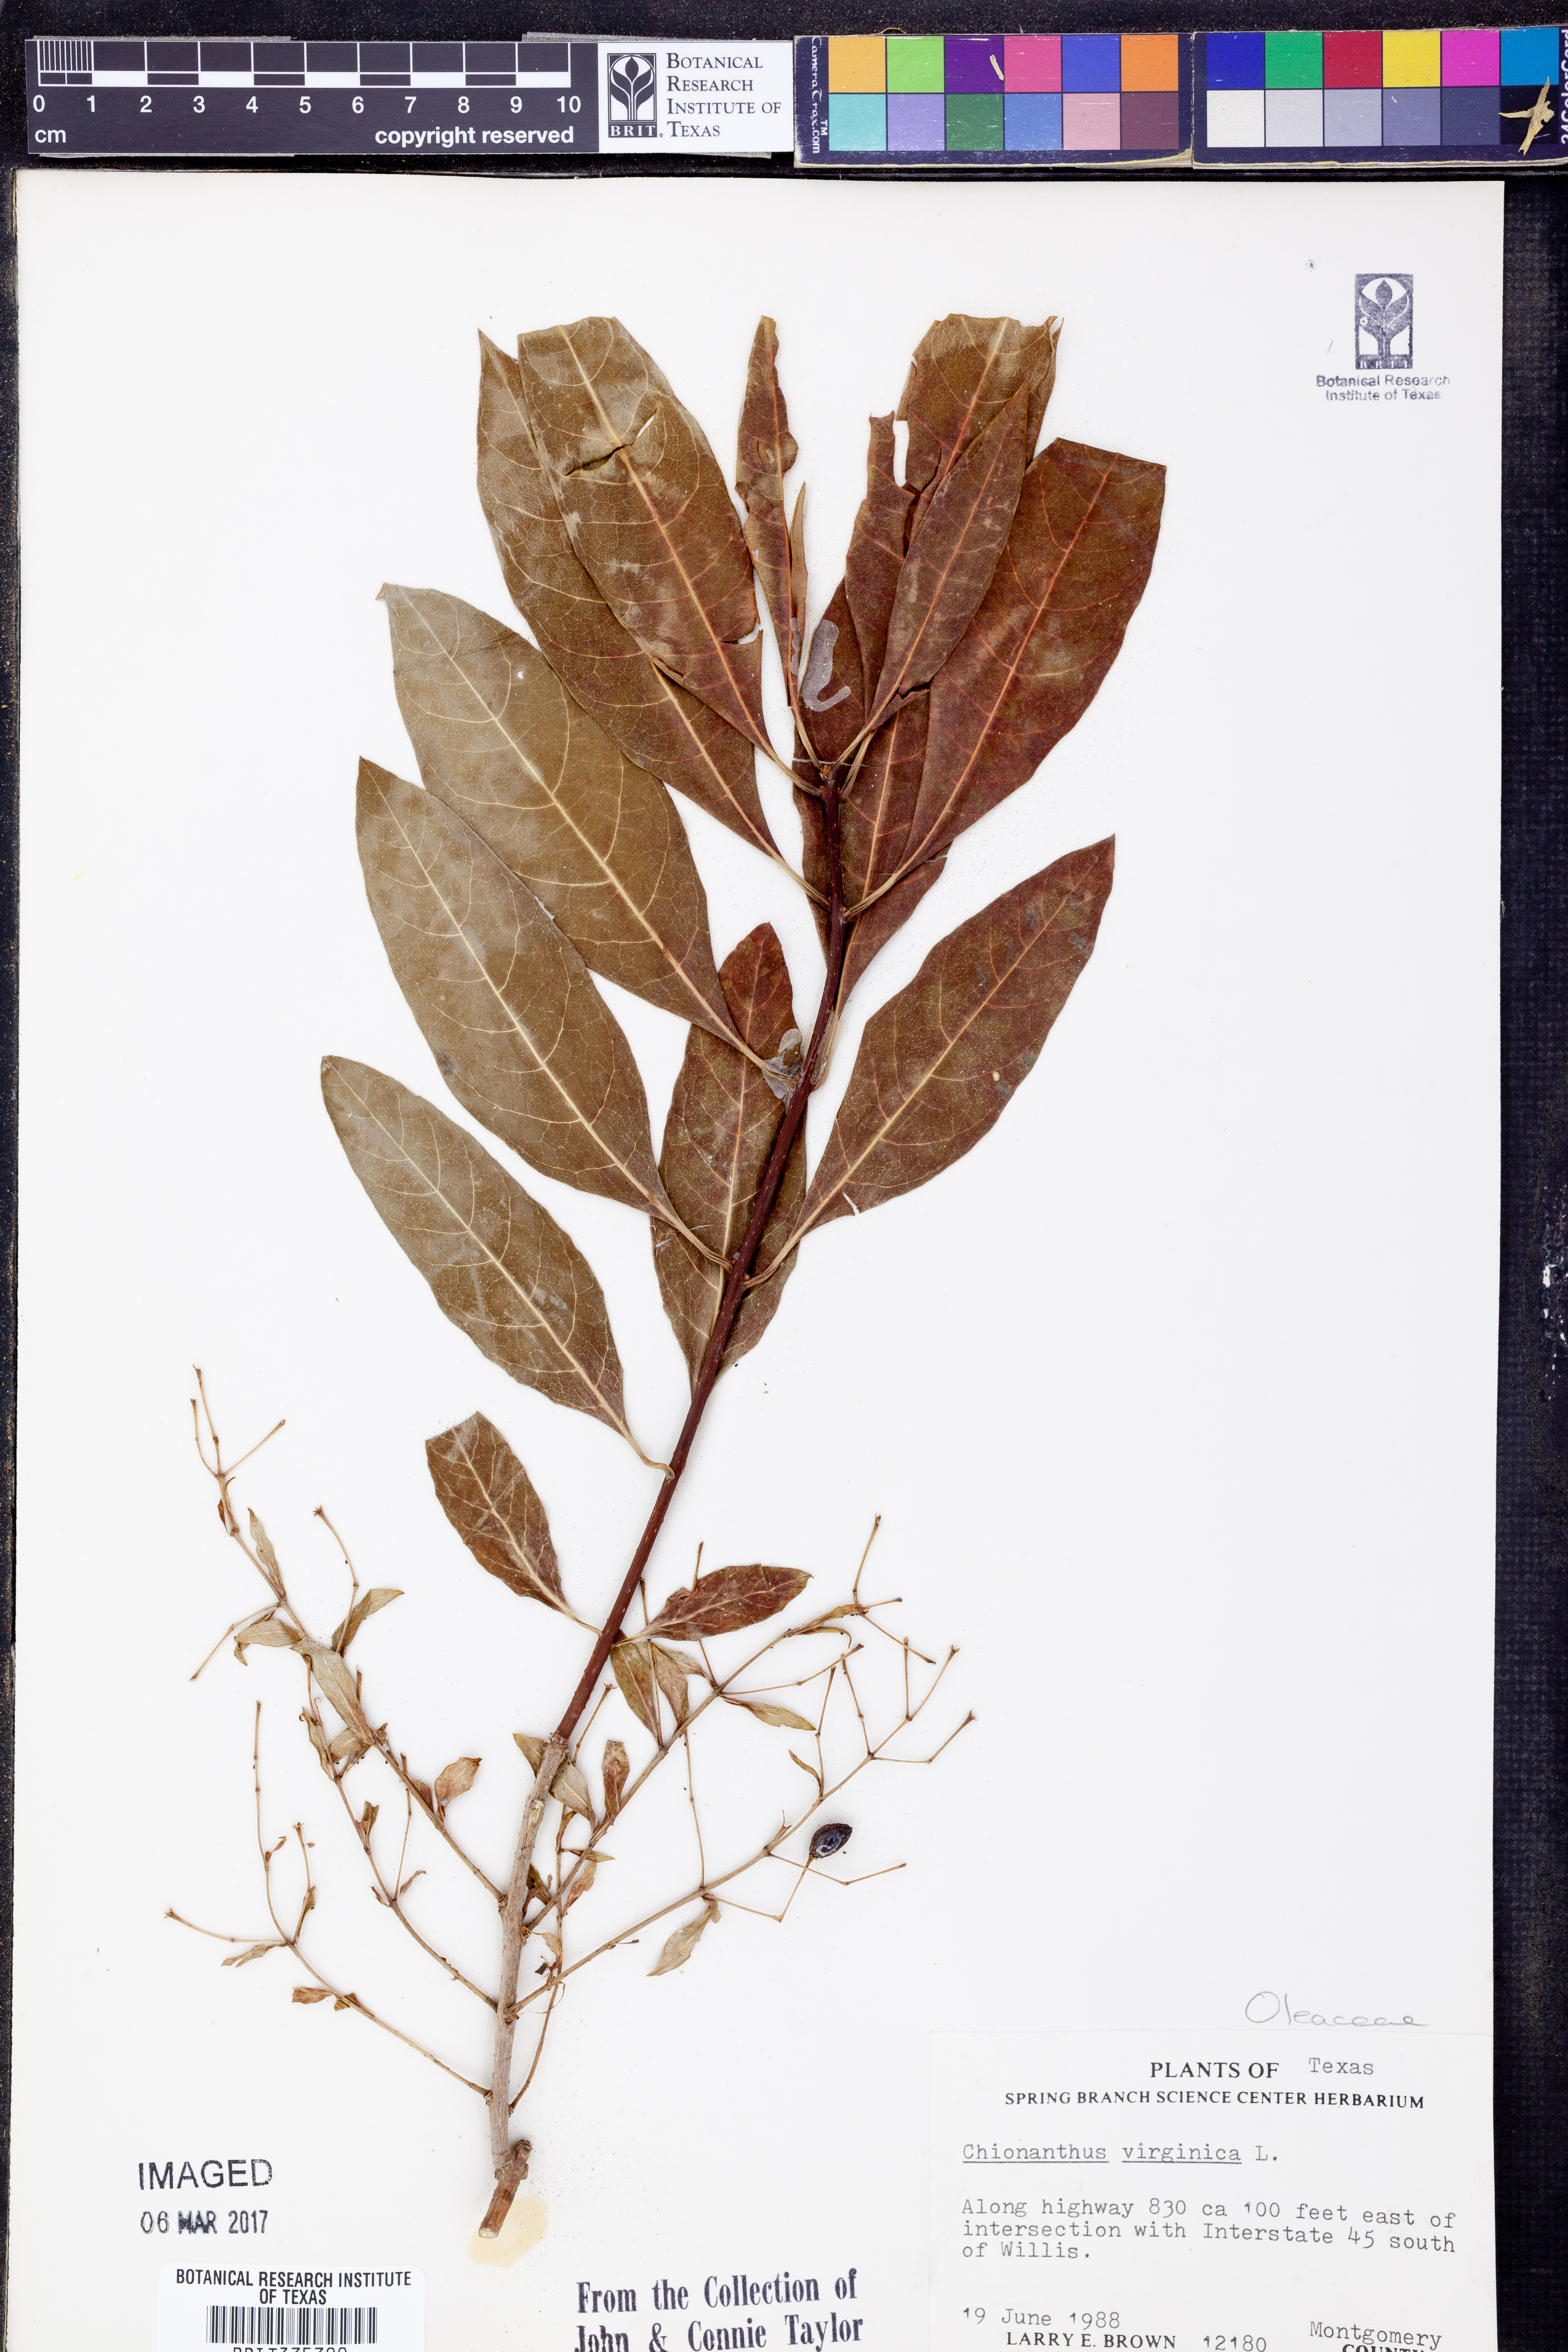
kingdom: Plantae
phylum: Tracheophyta
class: Magnoliopsida
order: Lamiales
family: Oleaceae
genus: Chionanthus
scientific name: Chionanthus virginicus
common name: American fringetree
